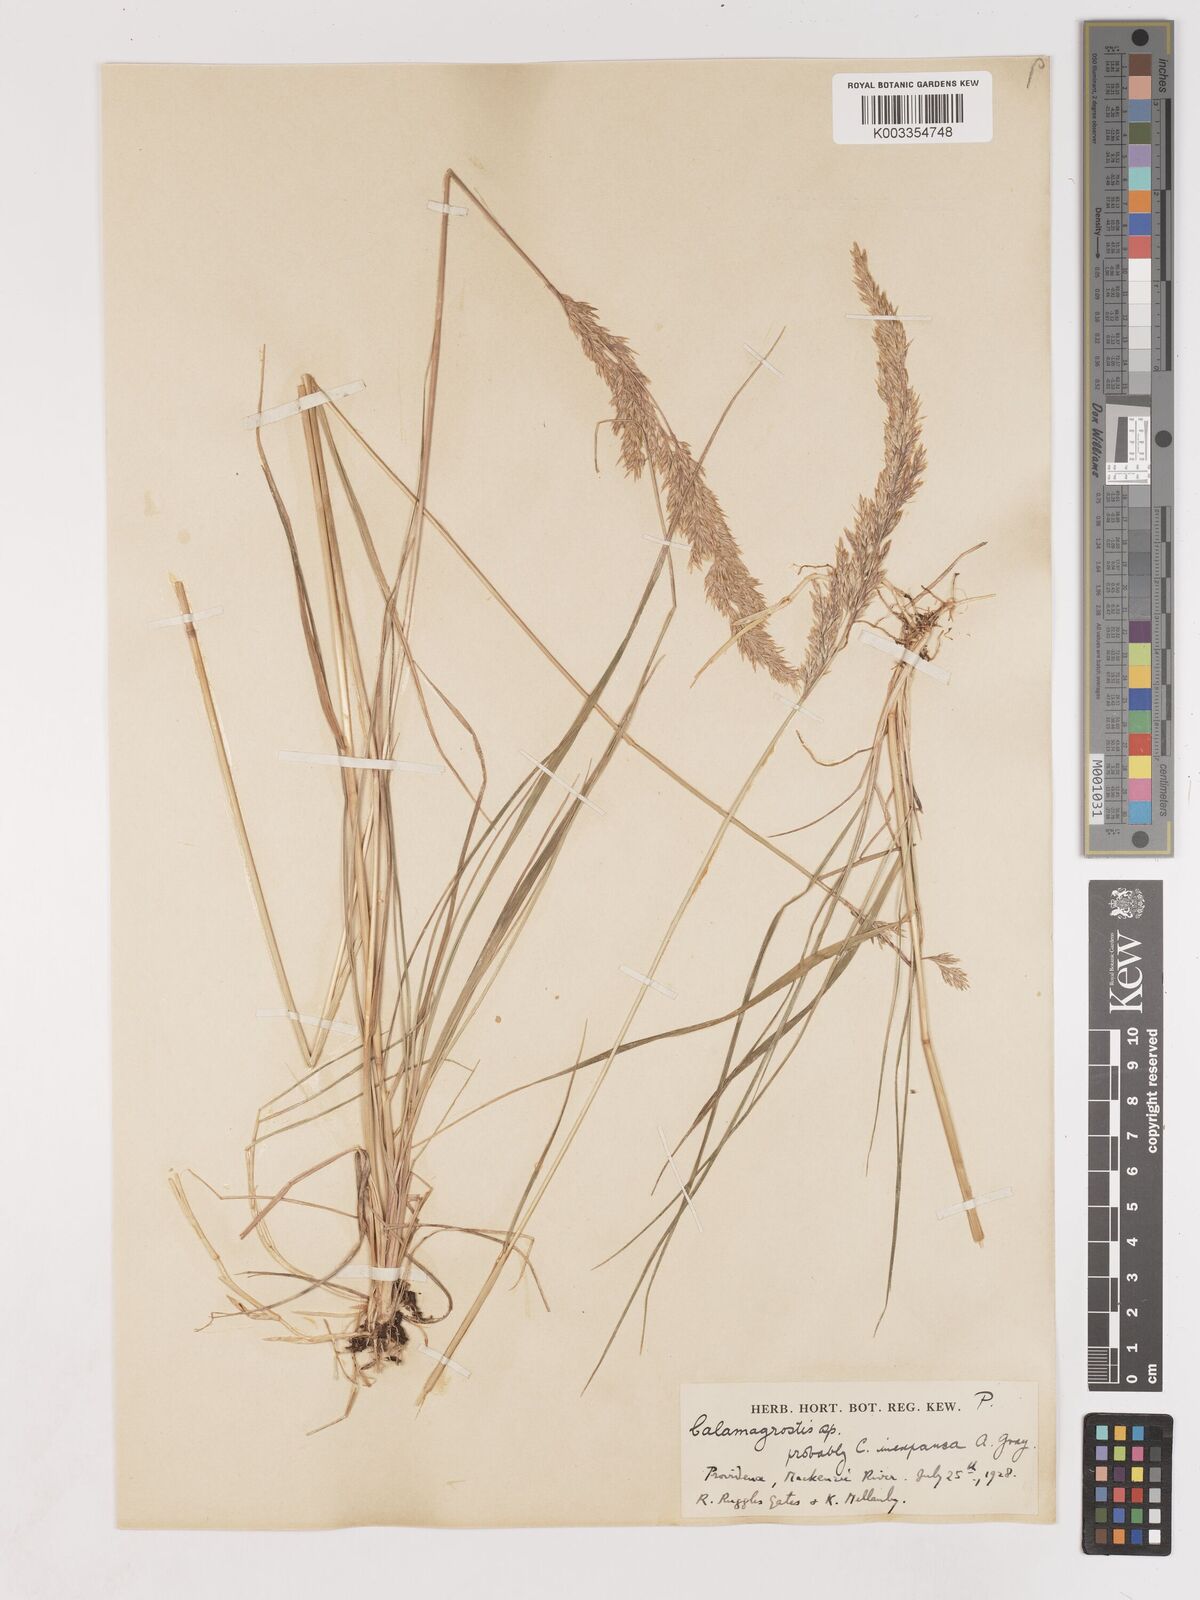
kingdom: Plantae
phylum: Tracheophyta
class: Liliopsida
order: Poales
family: Poaceae
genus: Cinnagrostis
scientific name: Cinnagrostis recta
